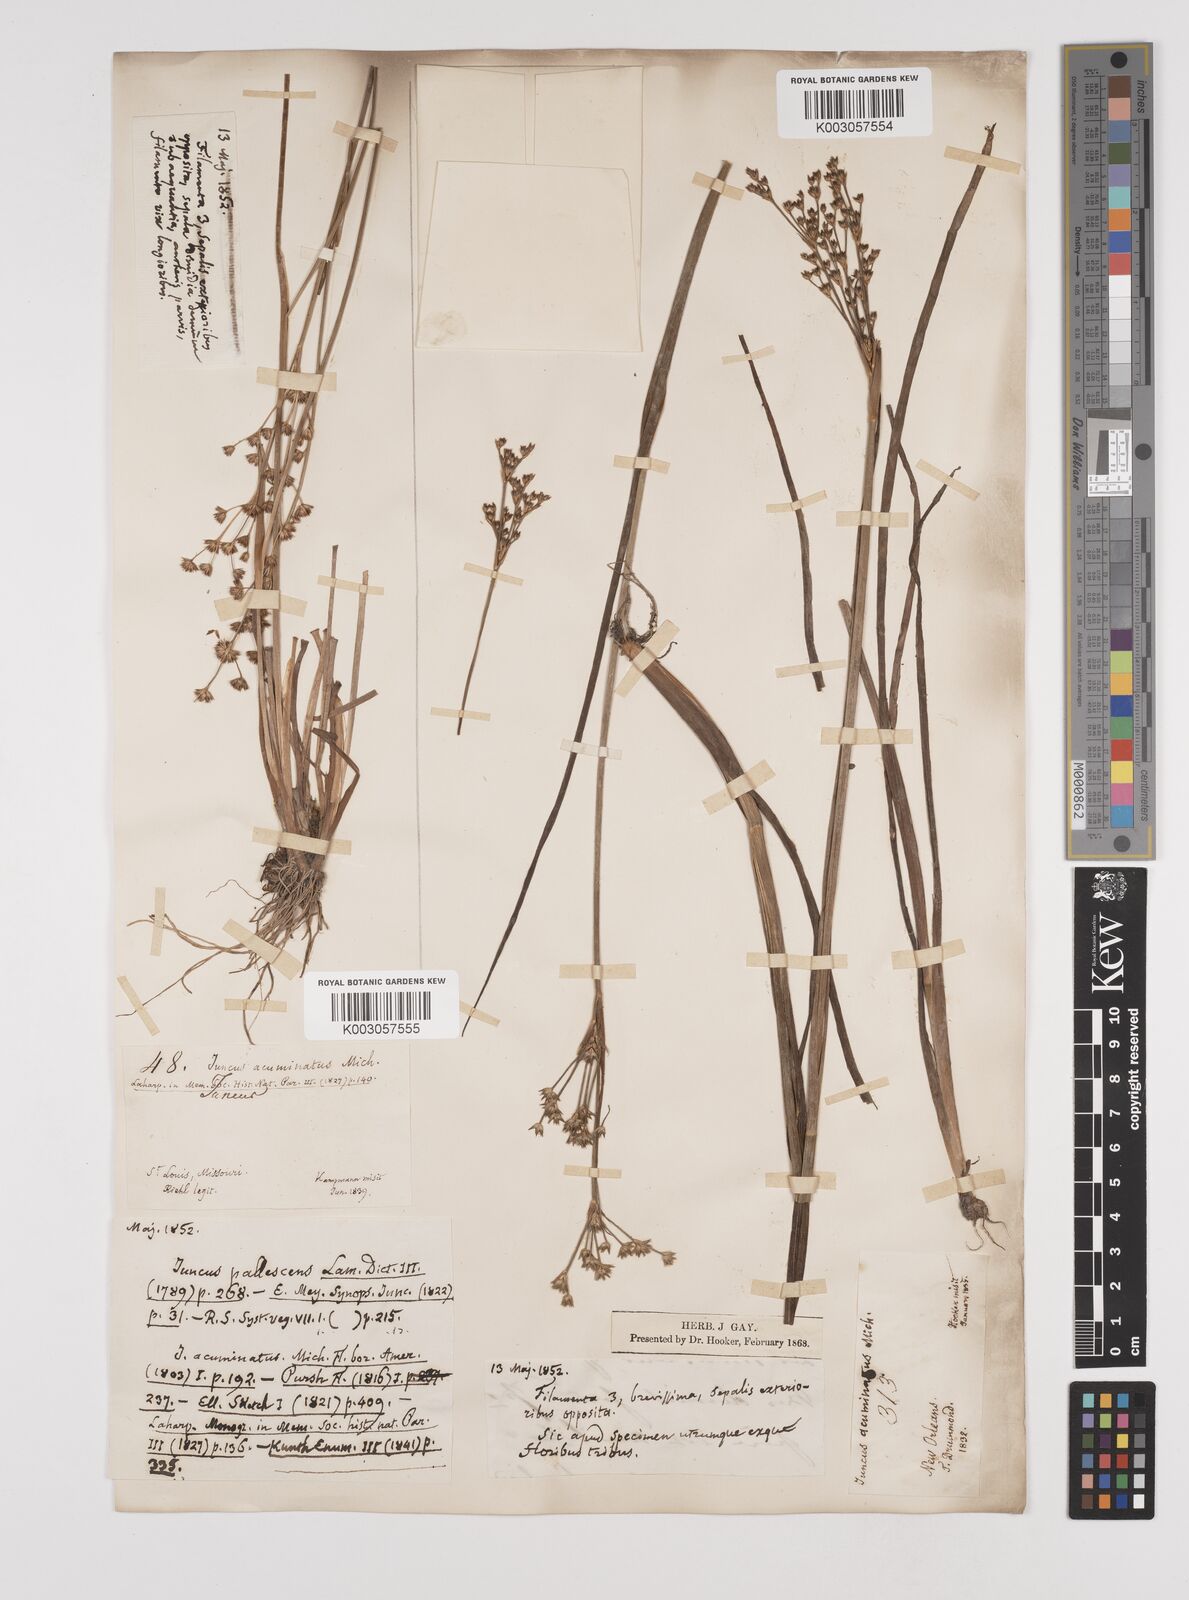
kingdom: Plantae
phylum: Tracheophyta
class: Liliopsida
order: Poales
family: Juncaceae
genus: Juncus
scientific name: Juncus acuminatus
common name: Knotty-leaved rush
